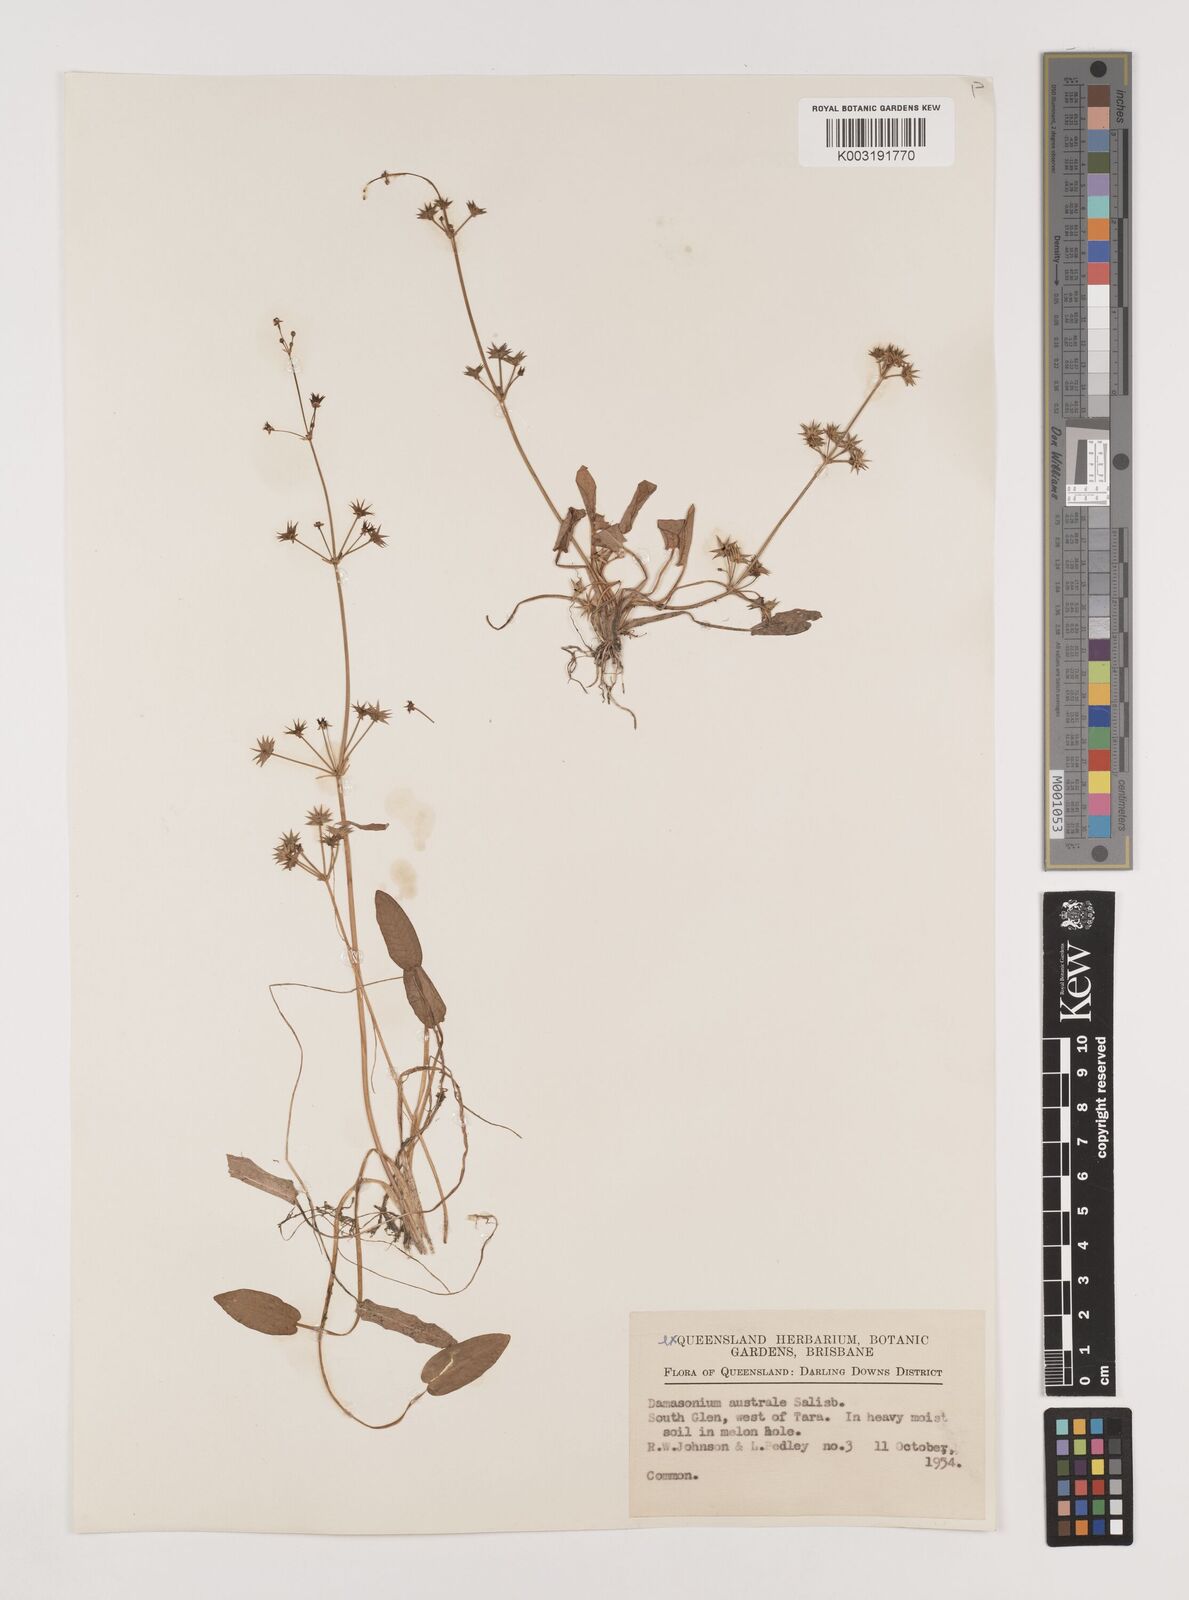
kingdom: Plantae
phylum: Tracheophyta
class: Liliopsida
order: Alismatales
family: Alismataceae
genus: Damasonium
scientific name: Damasonium minus
